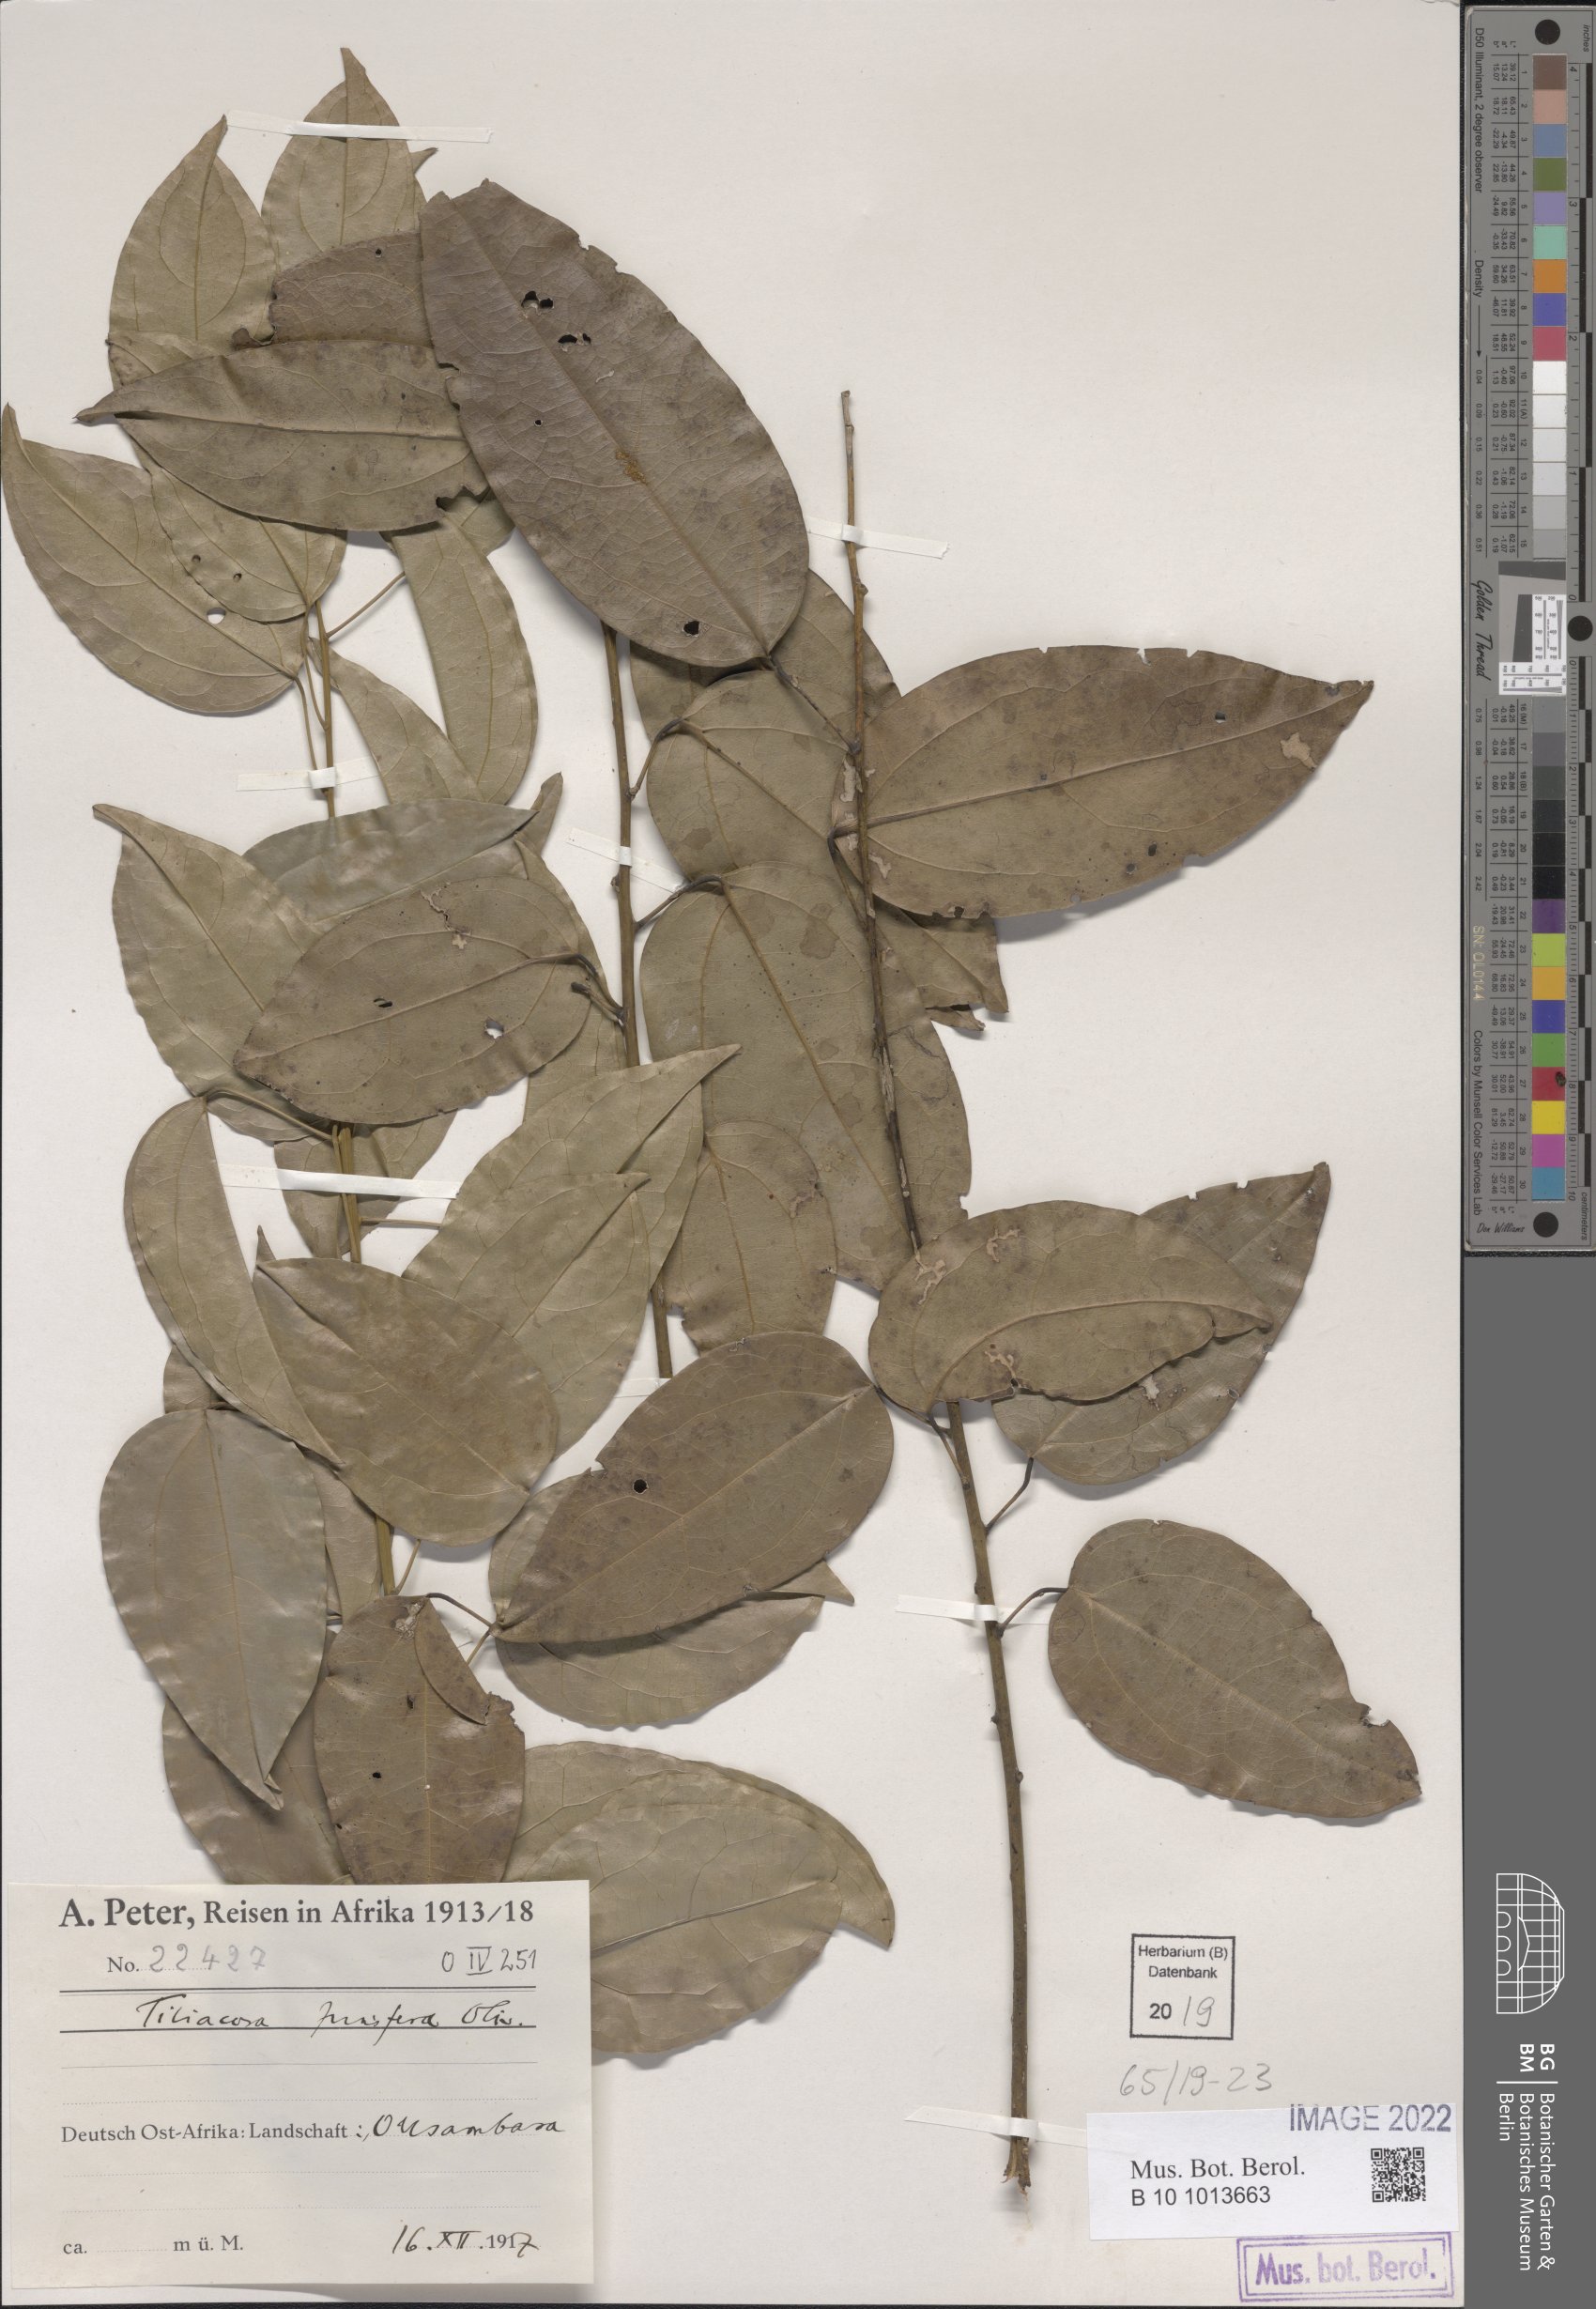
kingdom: Plantae
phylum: Tracheophyta
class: Magnoliopsida
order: Ranunculales
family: Menispermaceae
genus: Tiliacora
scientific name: Tiliacora funifera
